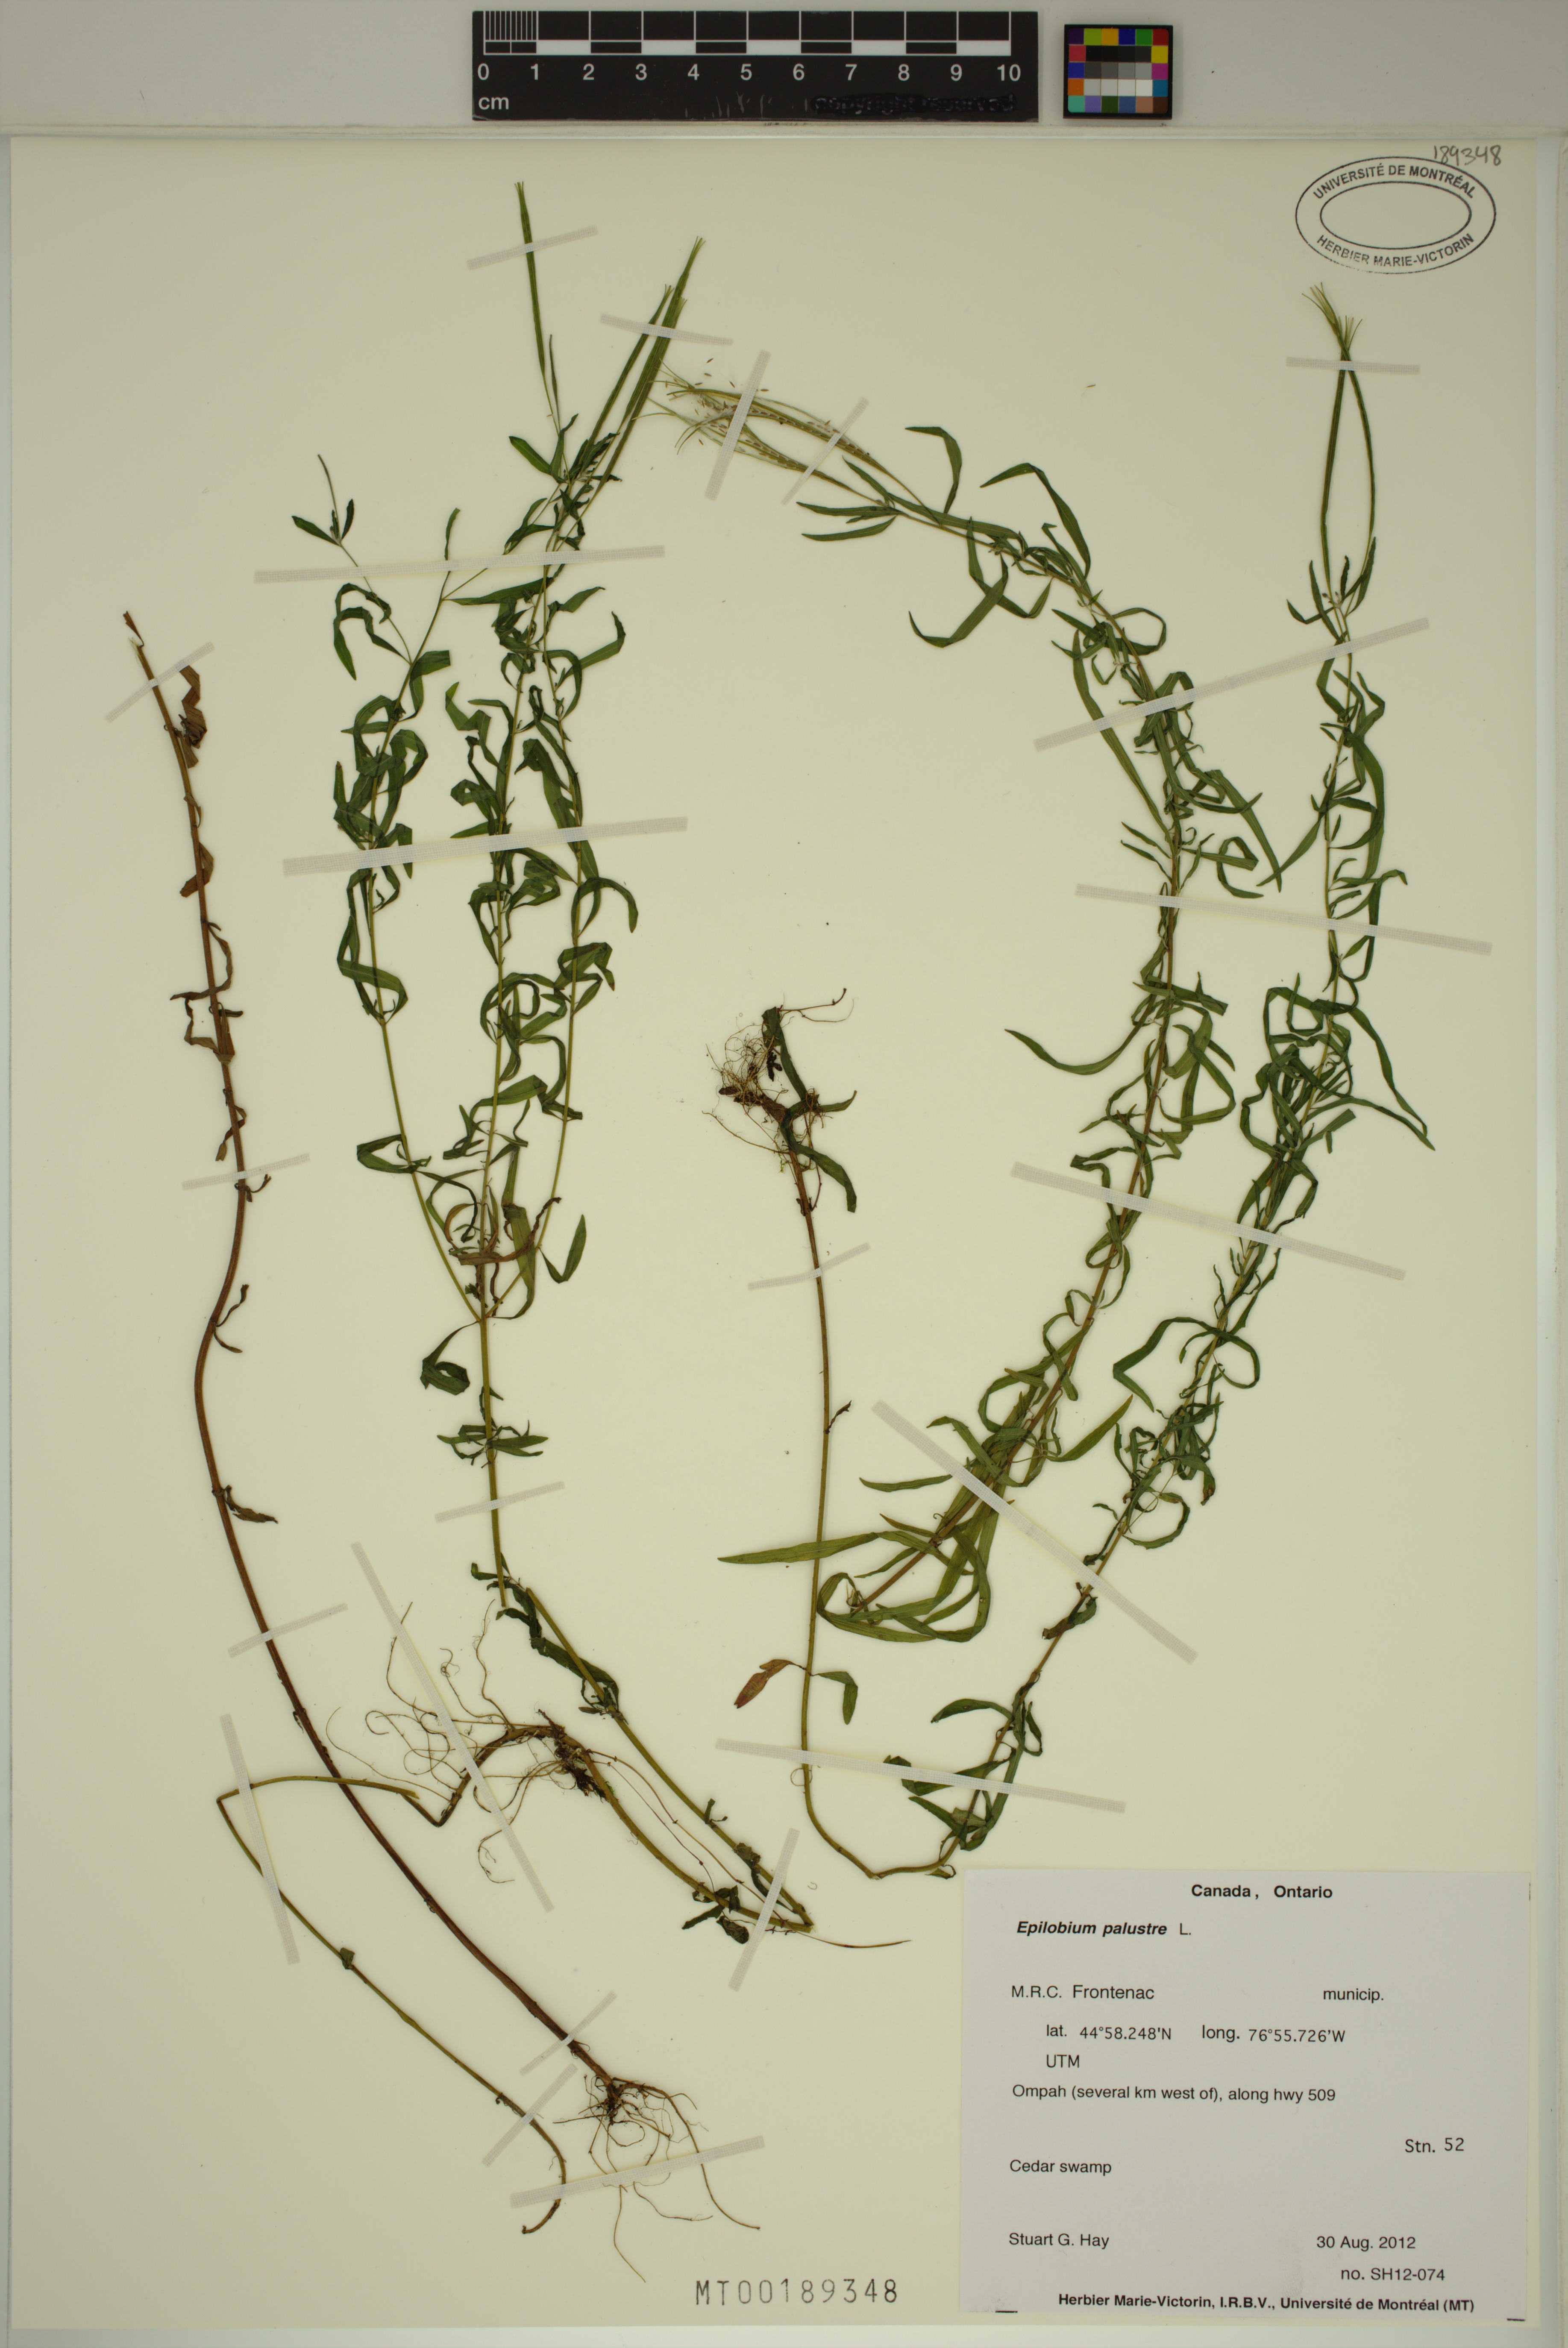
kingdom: Plantae
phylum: Tracheophyta
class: Magnoliopsida
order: Myrtales
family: Onagraceae
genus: Epilobium
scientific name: Epilobium palustre
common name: Marsh willowherb
